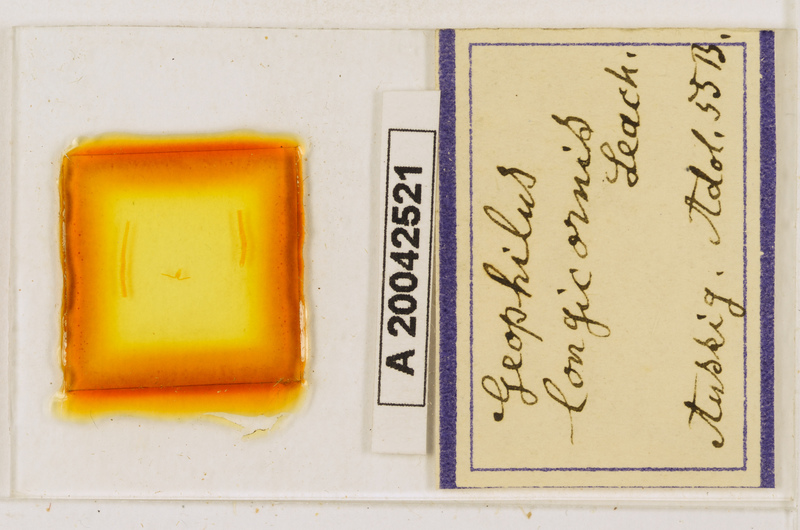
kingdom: Animalia
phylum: Arthropoda
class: Chilopoda
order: Geophilomorpha
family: Geophilidae
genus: Geophilus
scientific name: Geophilus flavus
